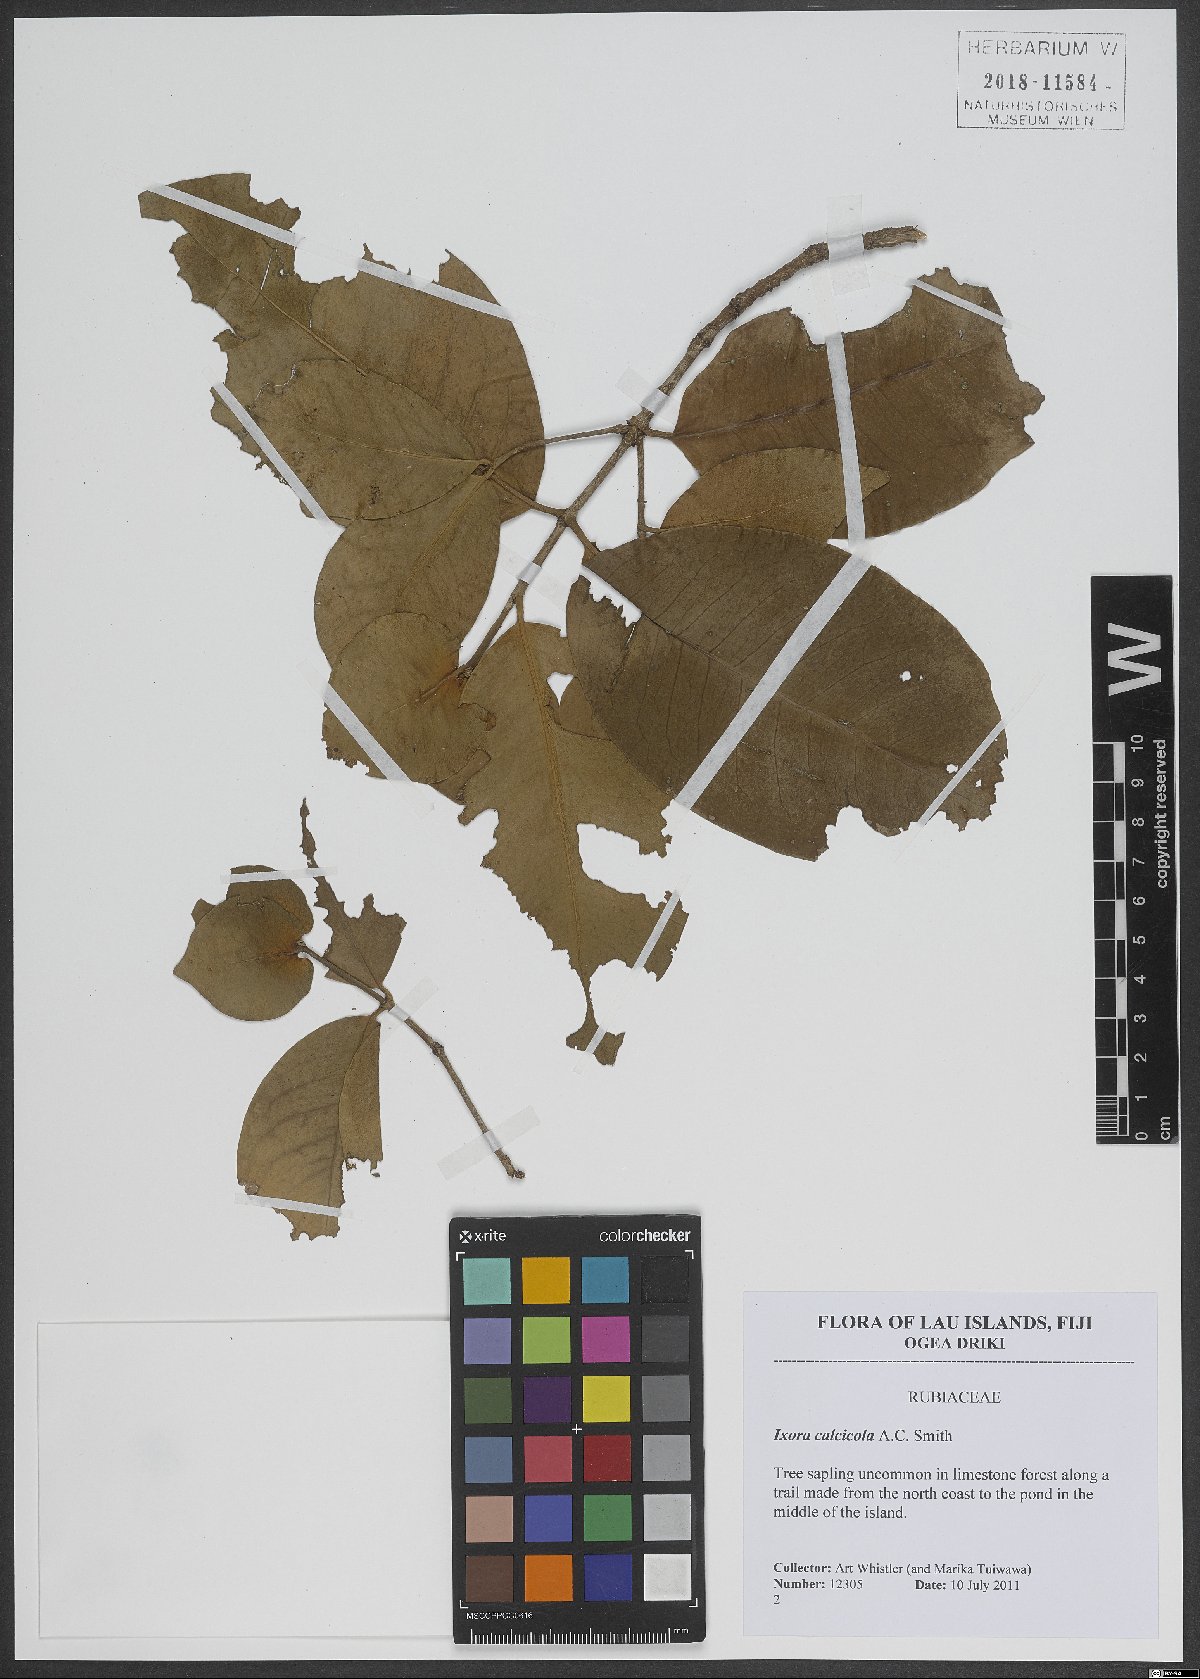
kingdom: Plantae
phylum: Tracheophyta
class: Magnoliopsida
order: Gentianales
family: Rubiaceae
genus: Ixora
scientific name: Ixora calcicola
